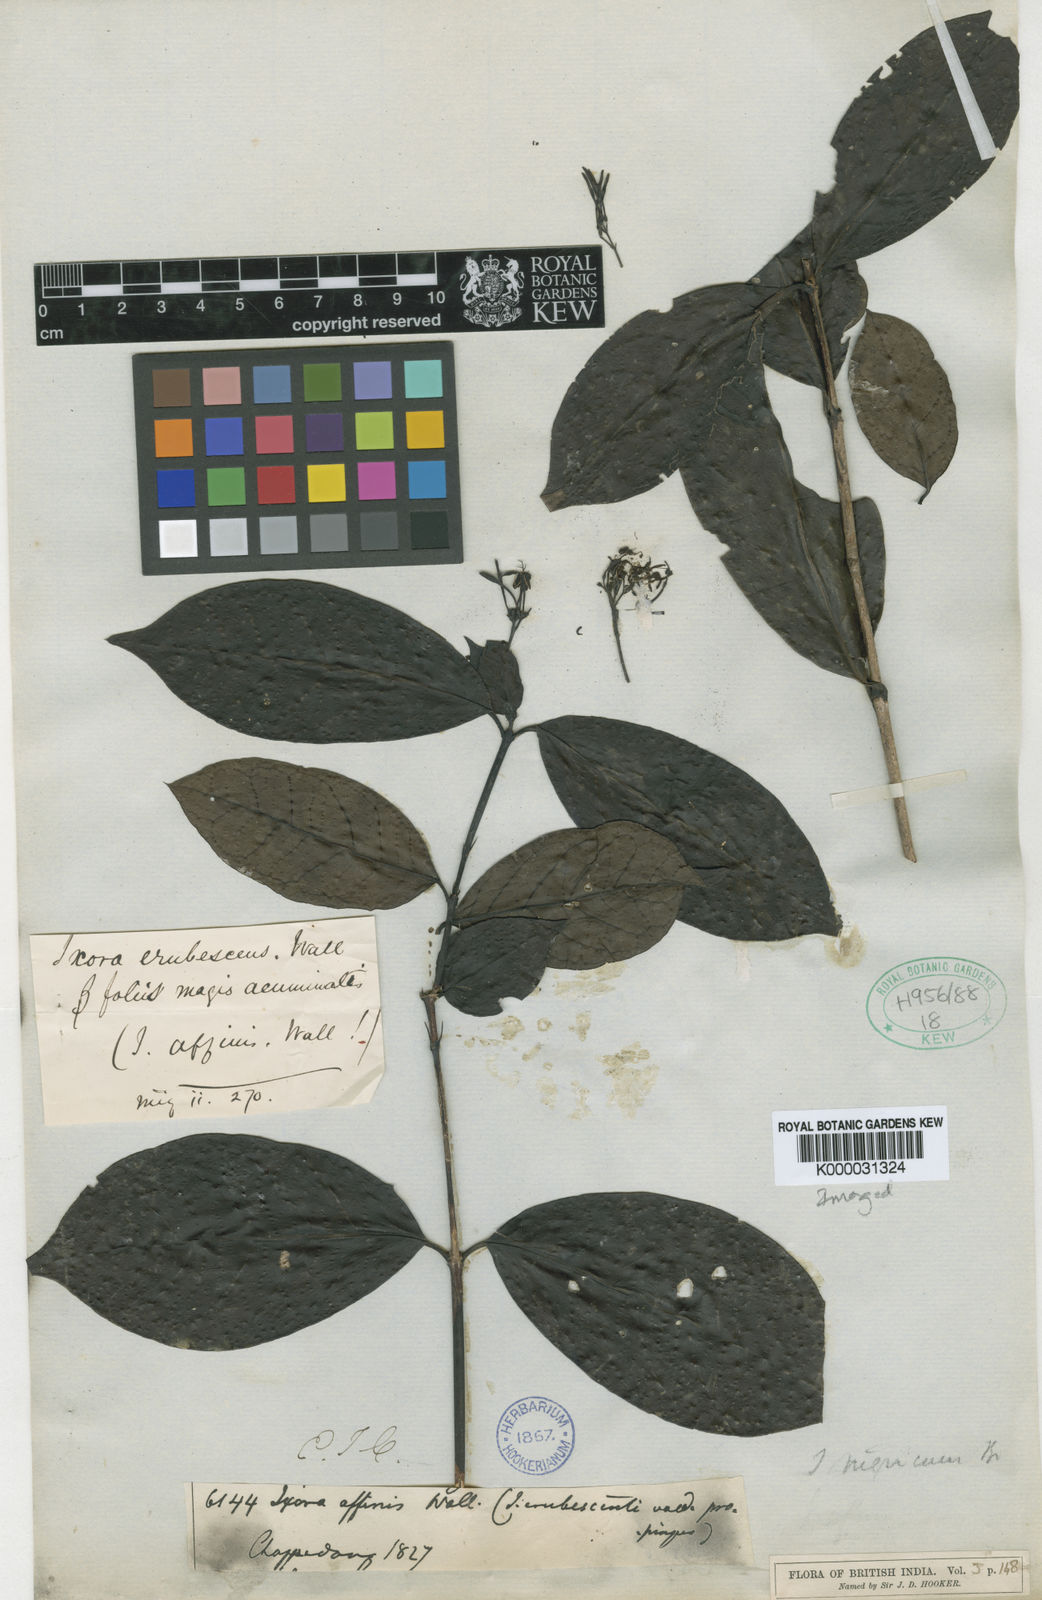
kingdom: Plantae
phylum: Tracheophyta
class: Magnoliopsida
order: Gentianales
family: Rubiaceae
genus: Ixora
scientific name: Ixora
